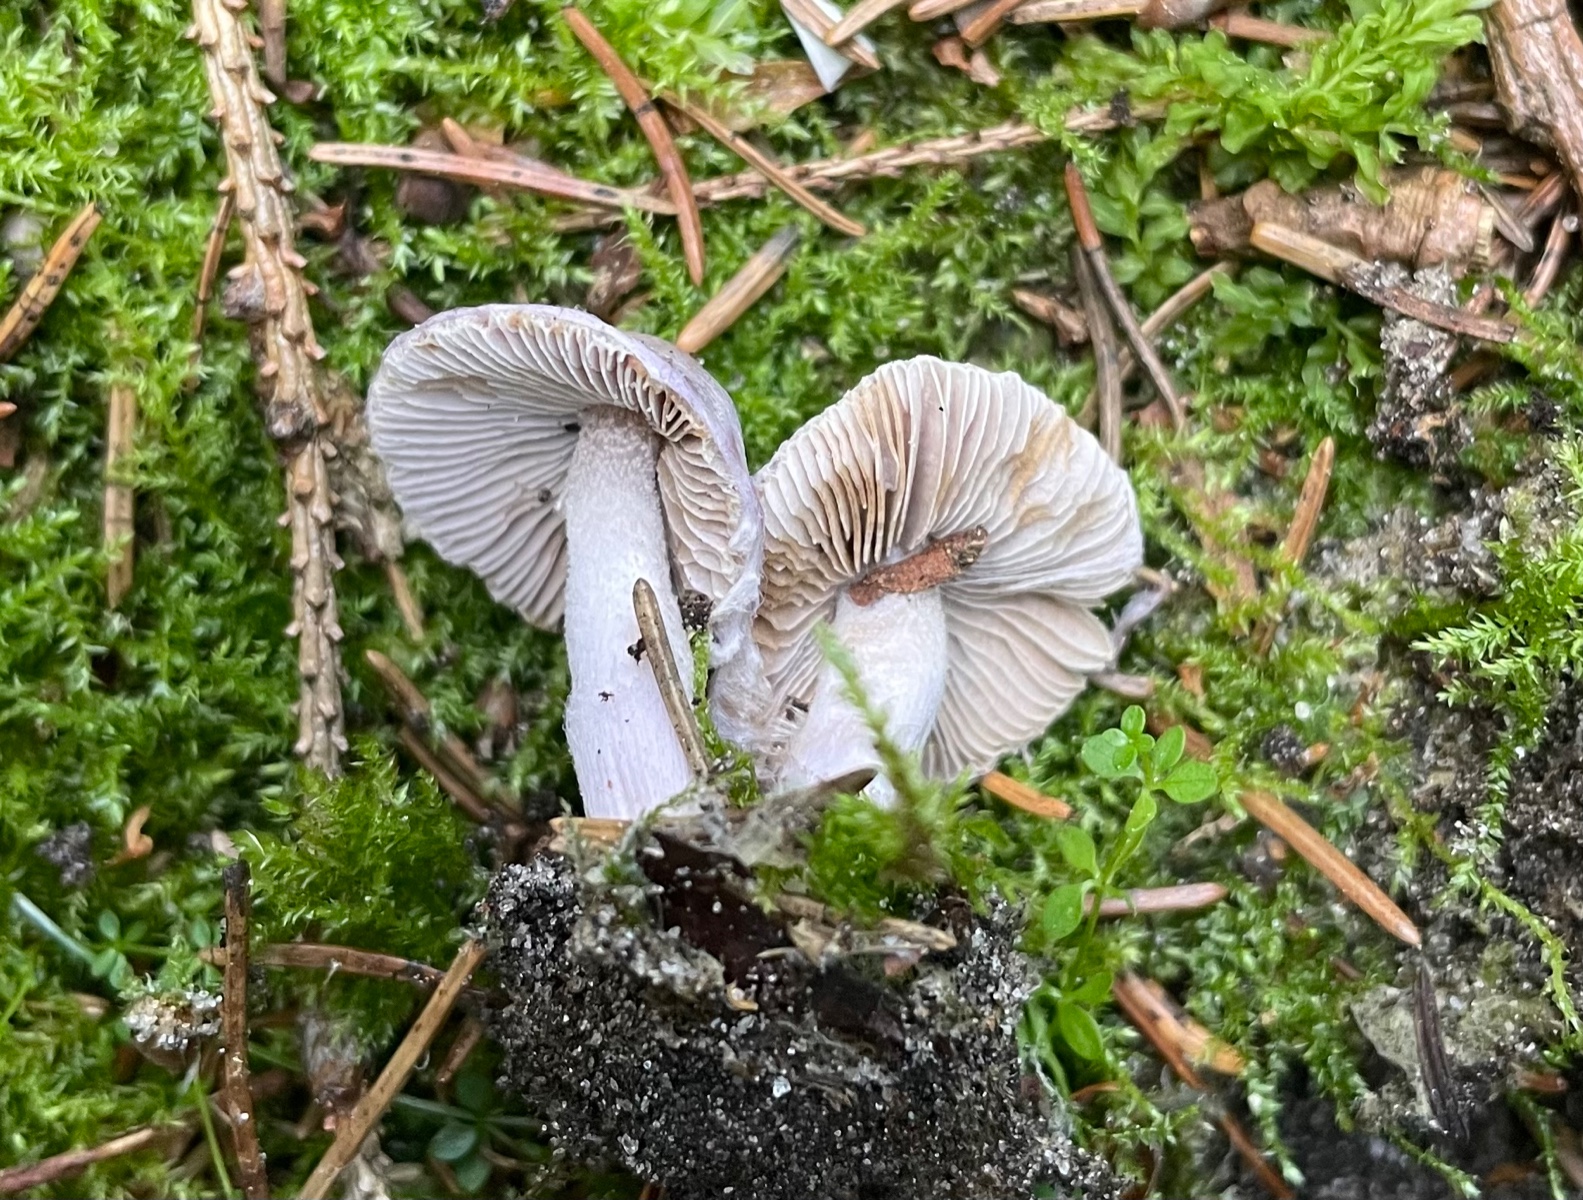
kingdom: Fungi
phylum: Basidiomycota
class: Agaricomycetes
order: Agaricales
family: Inocybaceae
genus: Inocybe
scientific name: Inocybe geophylla
